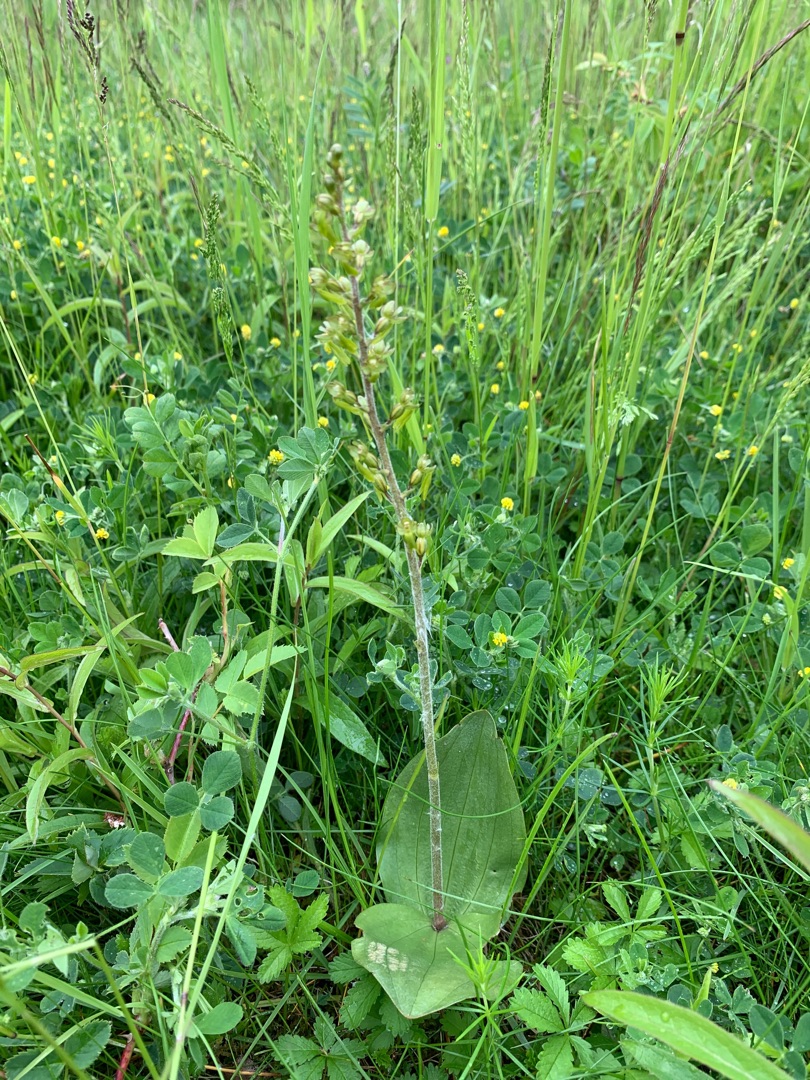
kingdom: Plantae
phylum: Tracheophyta
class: Liliopsida
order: Asparagales
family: Orchidaceae
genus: Neottia
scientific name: Neottia ovata
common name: Ægbladet fliglæbe
